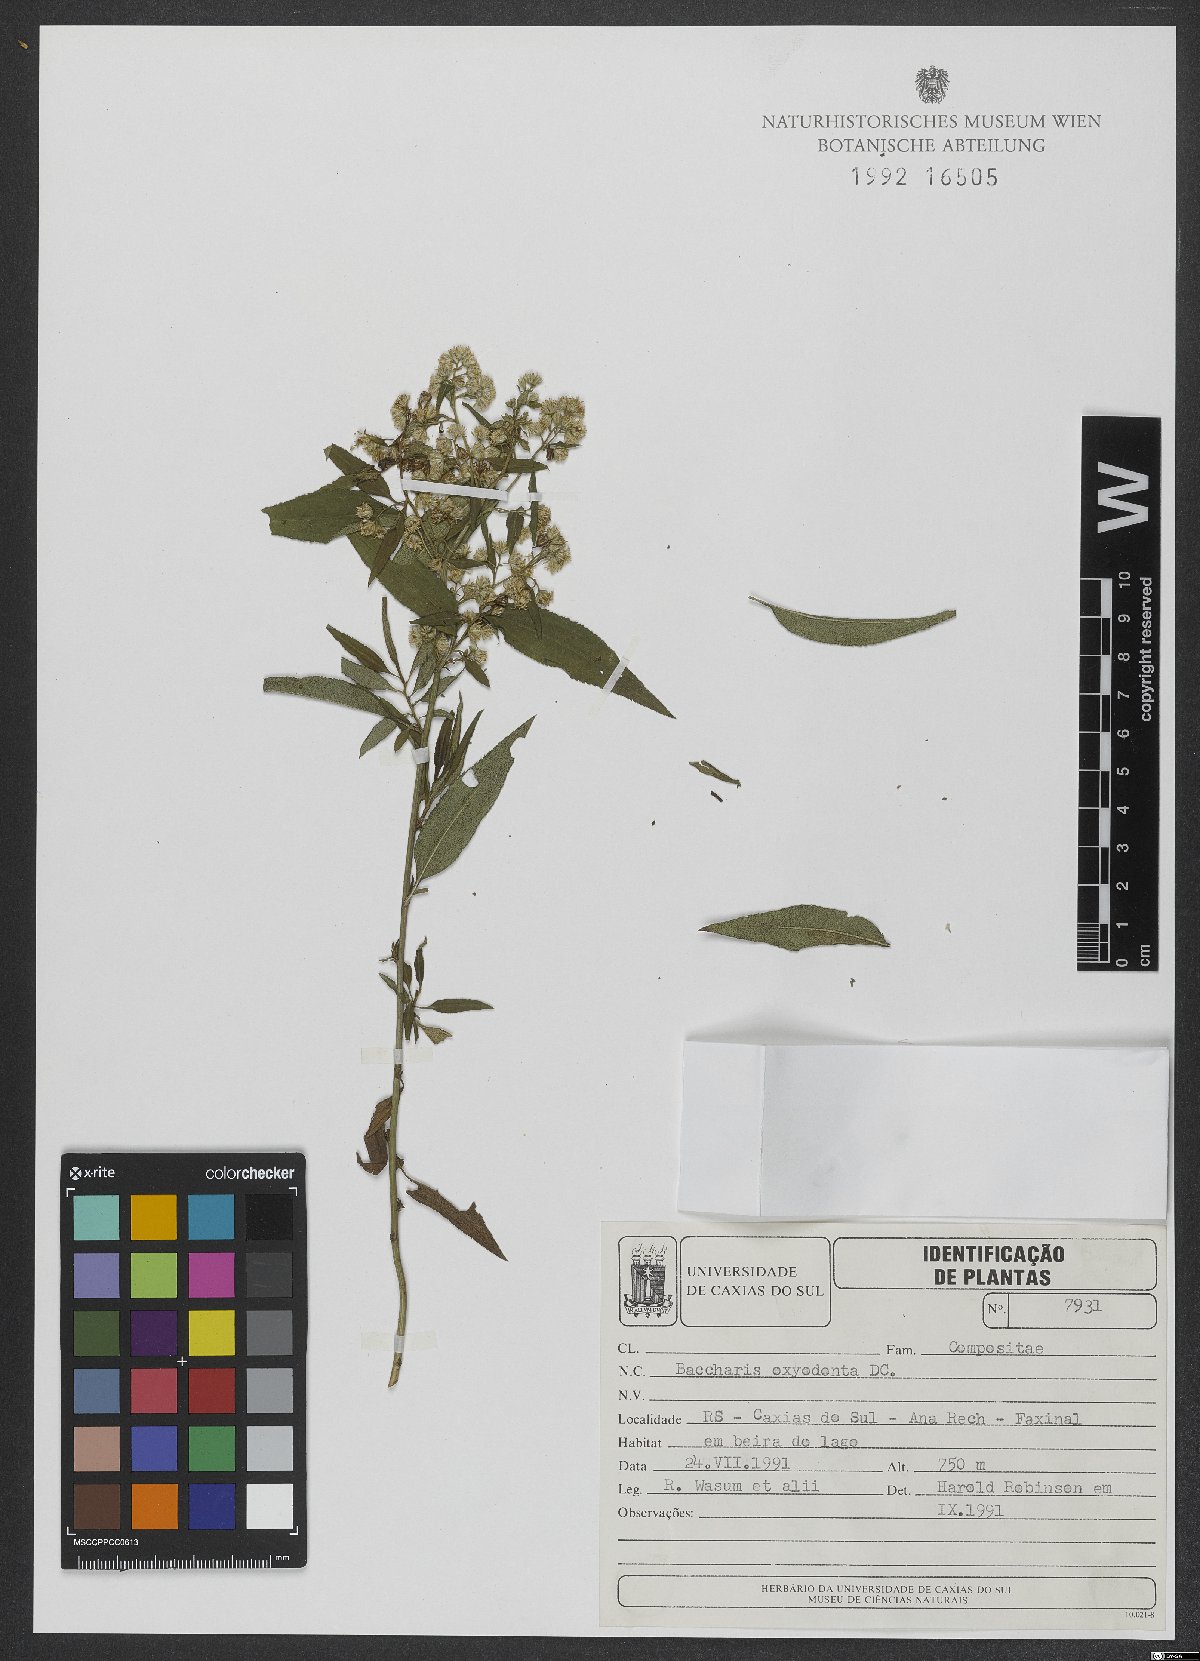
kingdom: Plantae
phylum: Tracheophyta
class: Magnoliopsida
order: Asterales
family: Asteraceae
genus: Baccharis
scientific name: Baccharis oxyodonta
